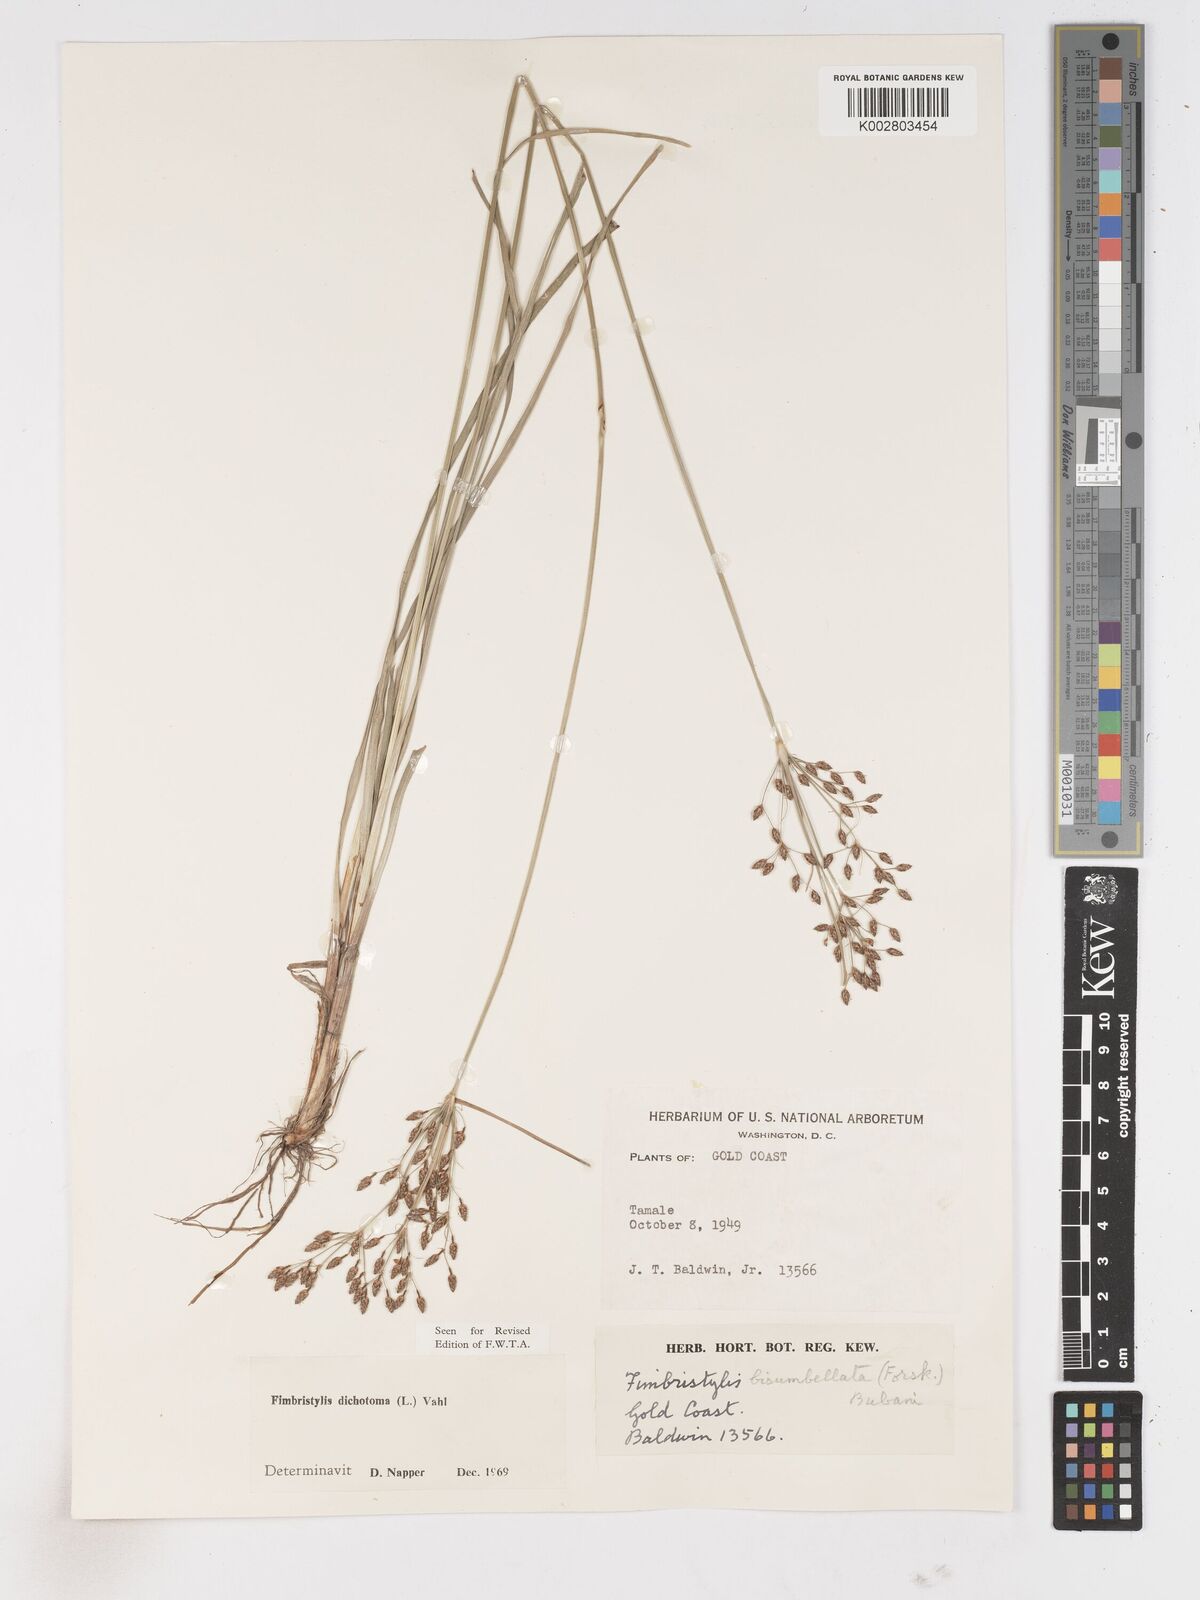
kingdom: Plantae
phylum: Tracheophyta
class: Liliopsida
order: Poales
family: Cyperaceae
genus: Fimbristylis
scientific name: Fimbristylis dichotoma
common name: Forked fimbry
